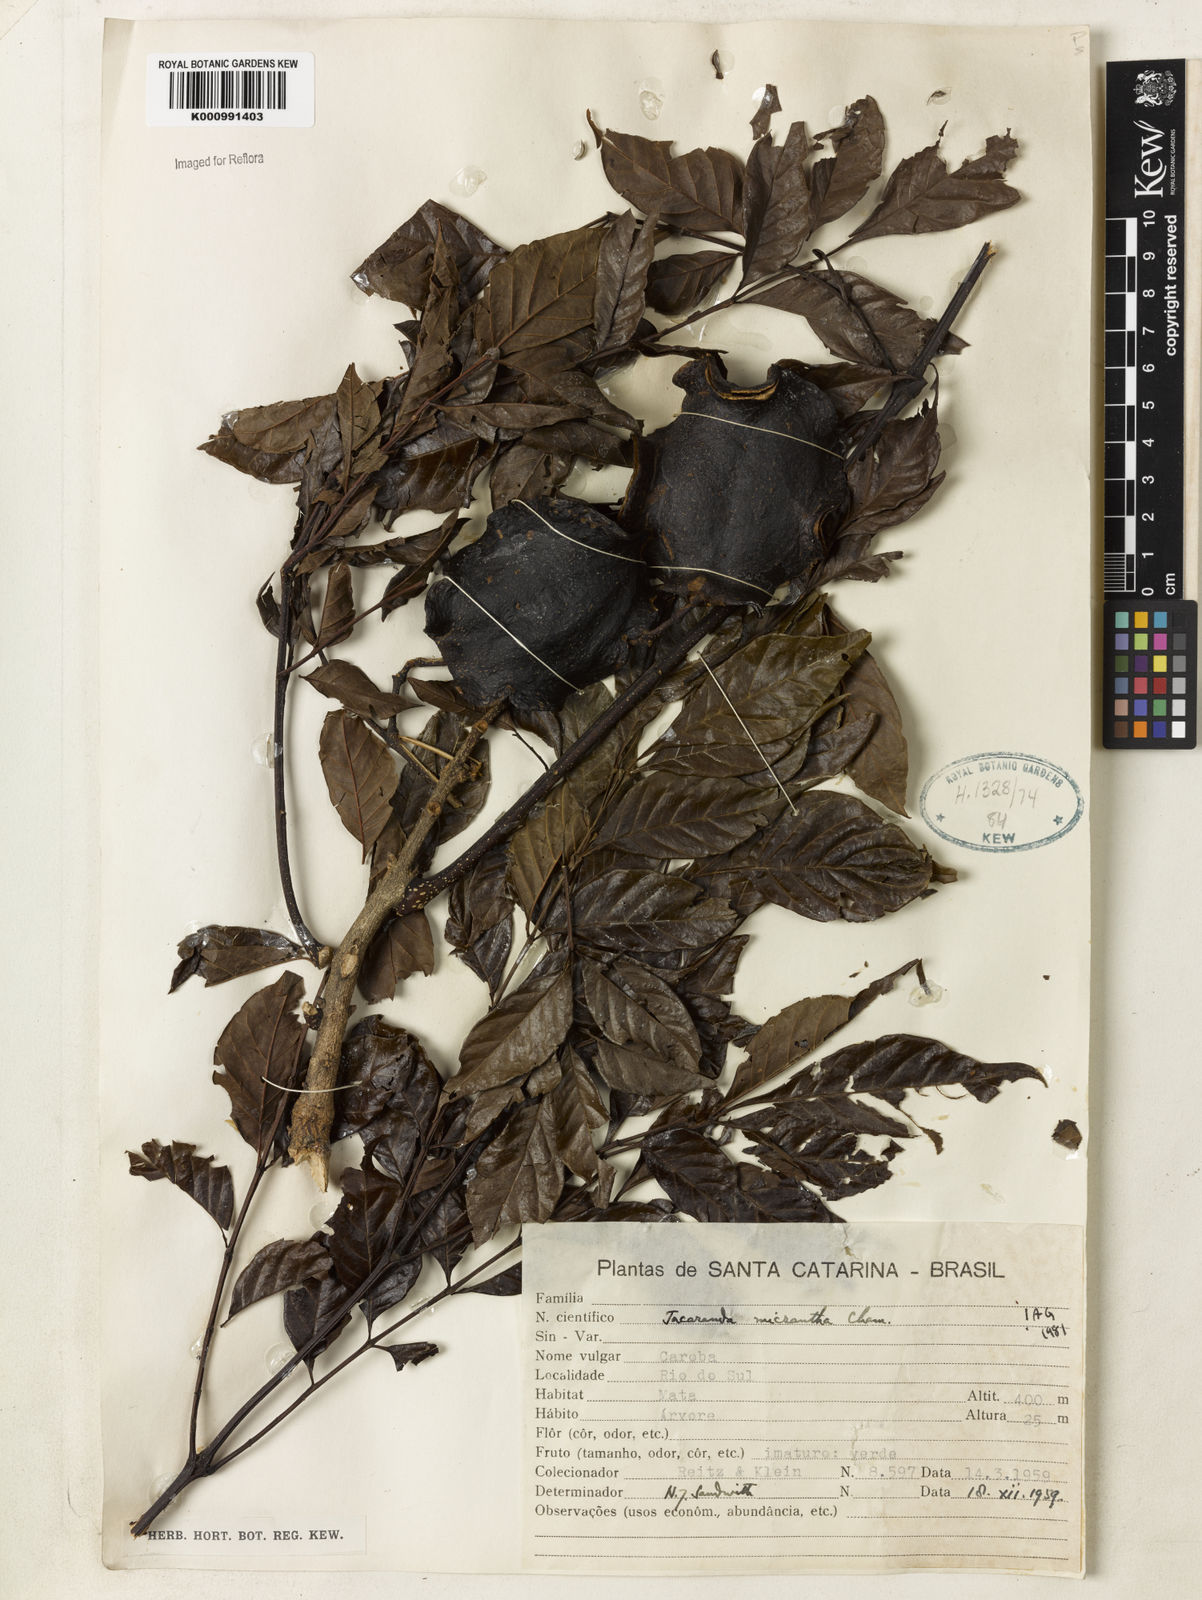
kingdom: Plantae
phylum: Tracheophyta
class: Magnoliopsida
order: Lamiales
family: Bignoniaceae
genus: Jacaranda
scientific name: Jacaranda micrantha
